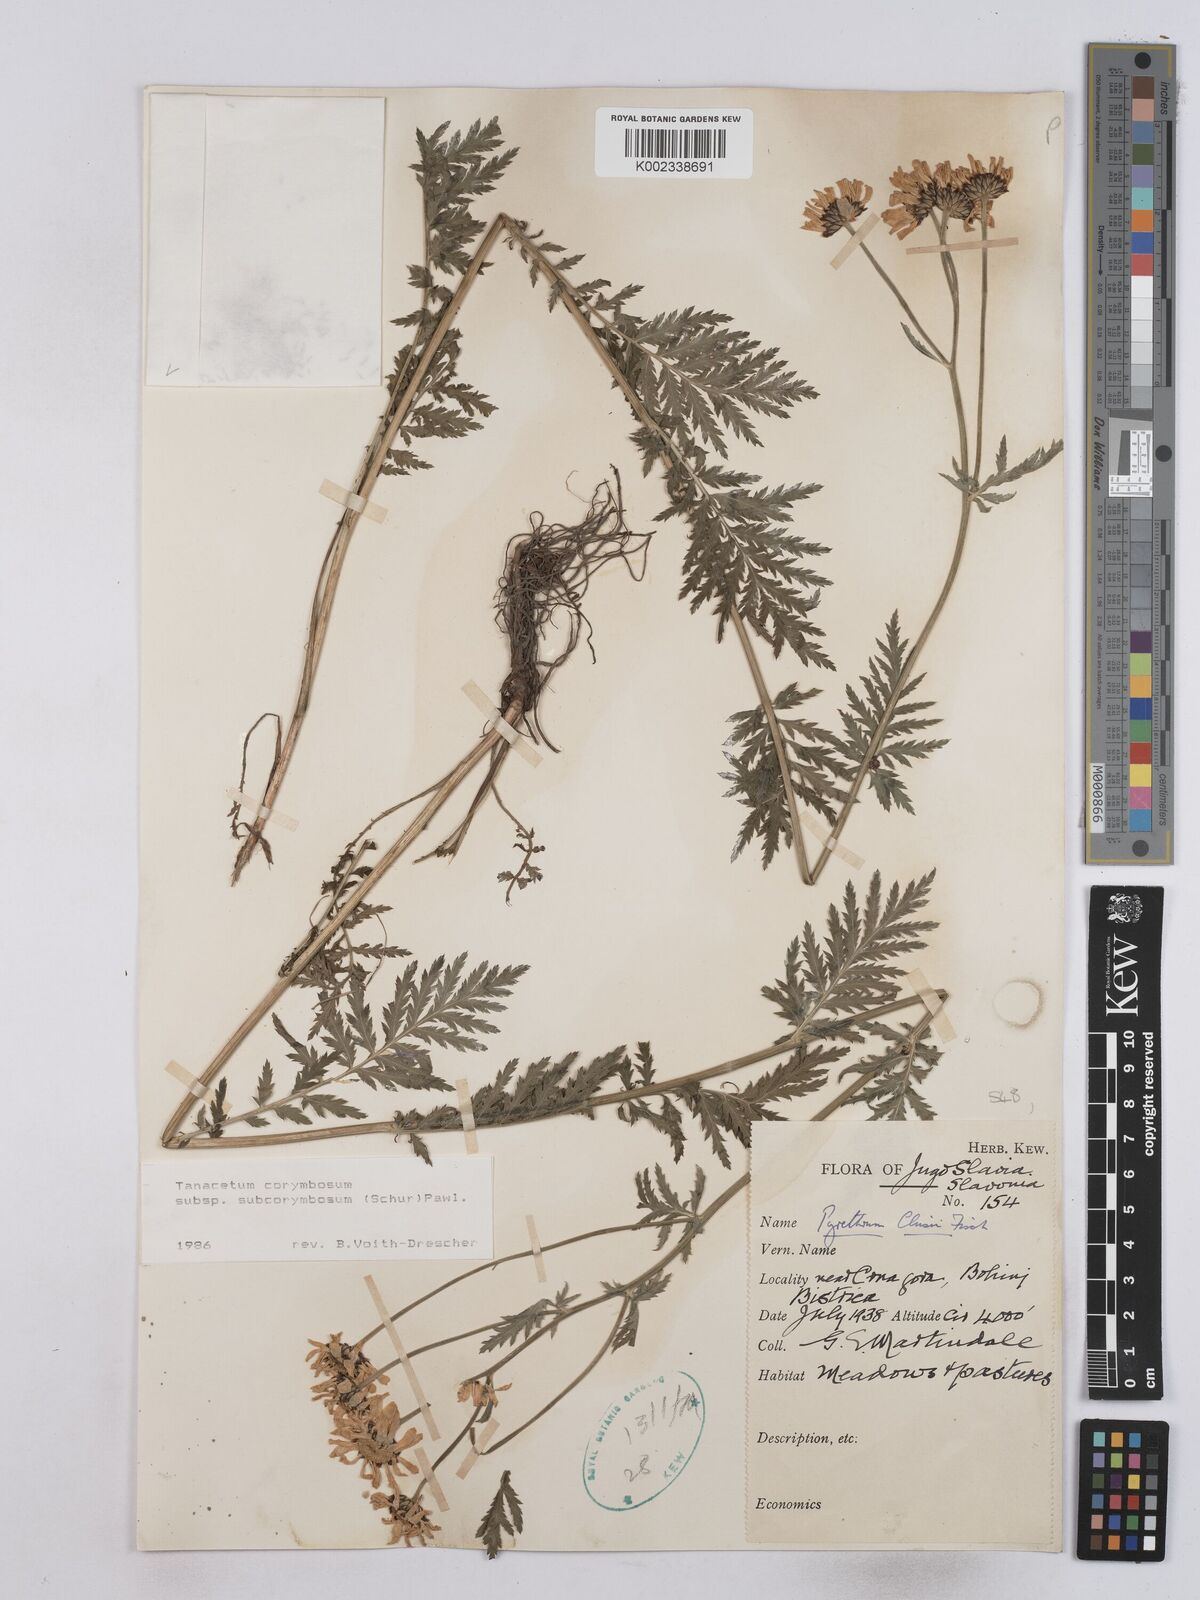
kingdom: Plantae
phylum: Tracheophyta
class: Magnoliopsida
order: Asterales
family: Asteraceae
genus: Tanacetum
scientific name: Tanacetum corymbosum
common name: Scentless feverfew
